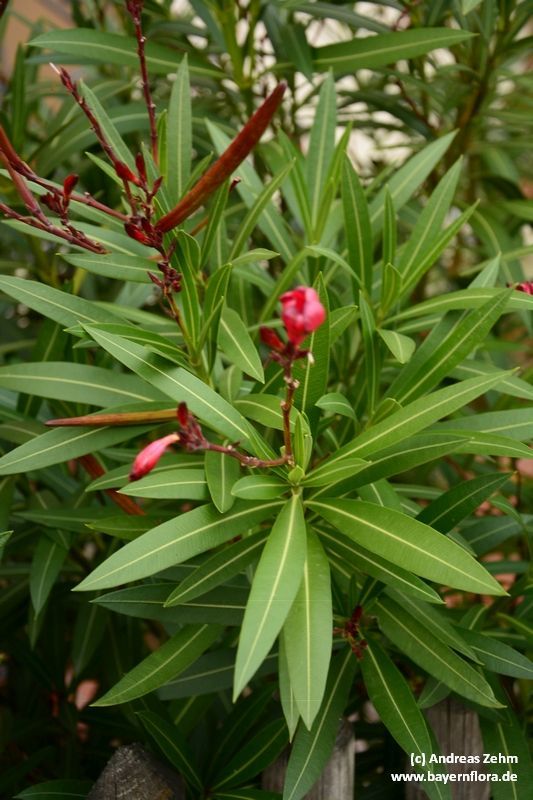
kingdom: Plantae
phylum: Tracheophyta
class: Magnoliopsida
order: Gentianales
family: Apocynaceae
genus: Nerium
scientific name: Nerium oleander
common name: Oleander
